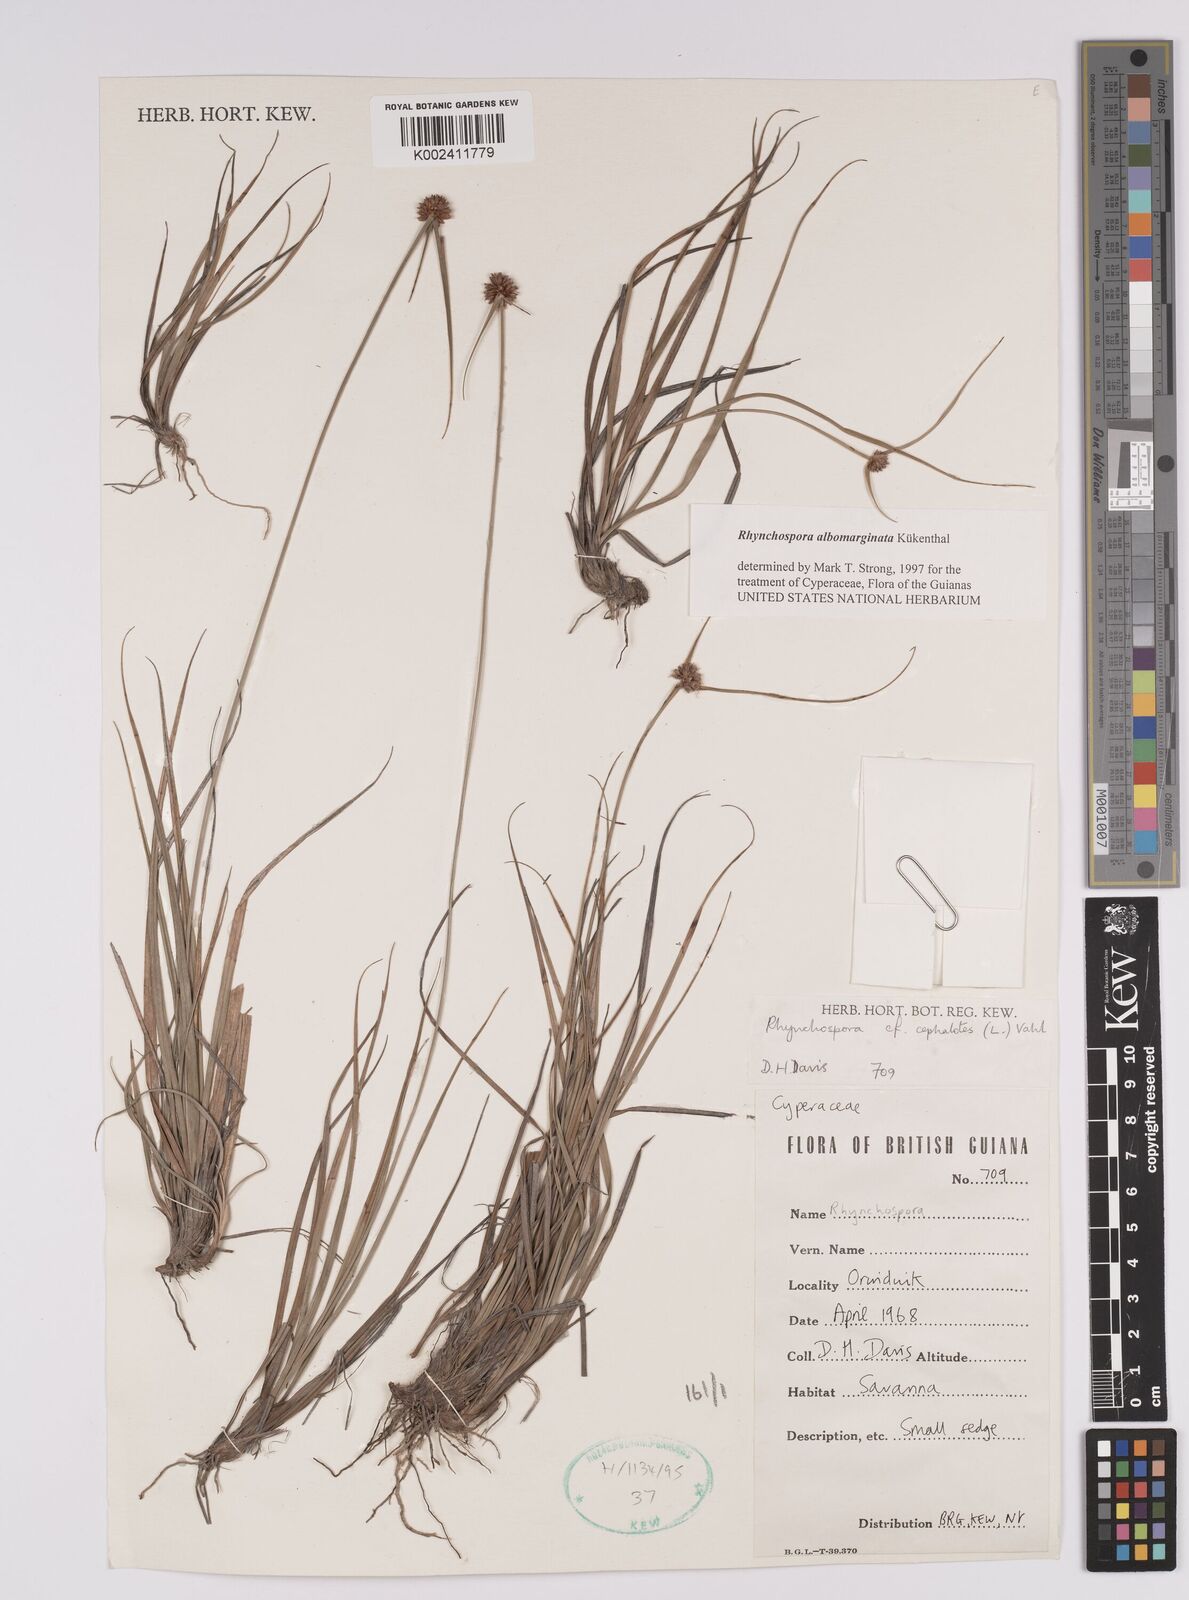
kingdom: Plantae
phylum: Tracheophyta
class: Liliopsida
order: Poales
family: Cyperaceae
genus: Rhynchospora
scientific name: Rhynchospora cephalotes
